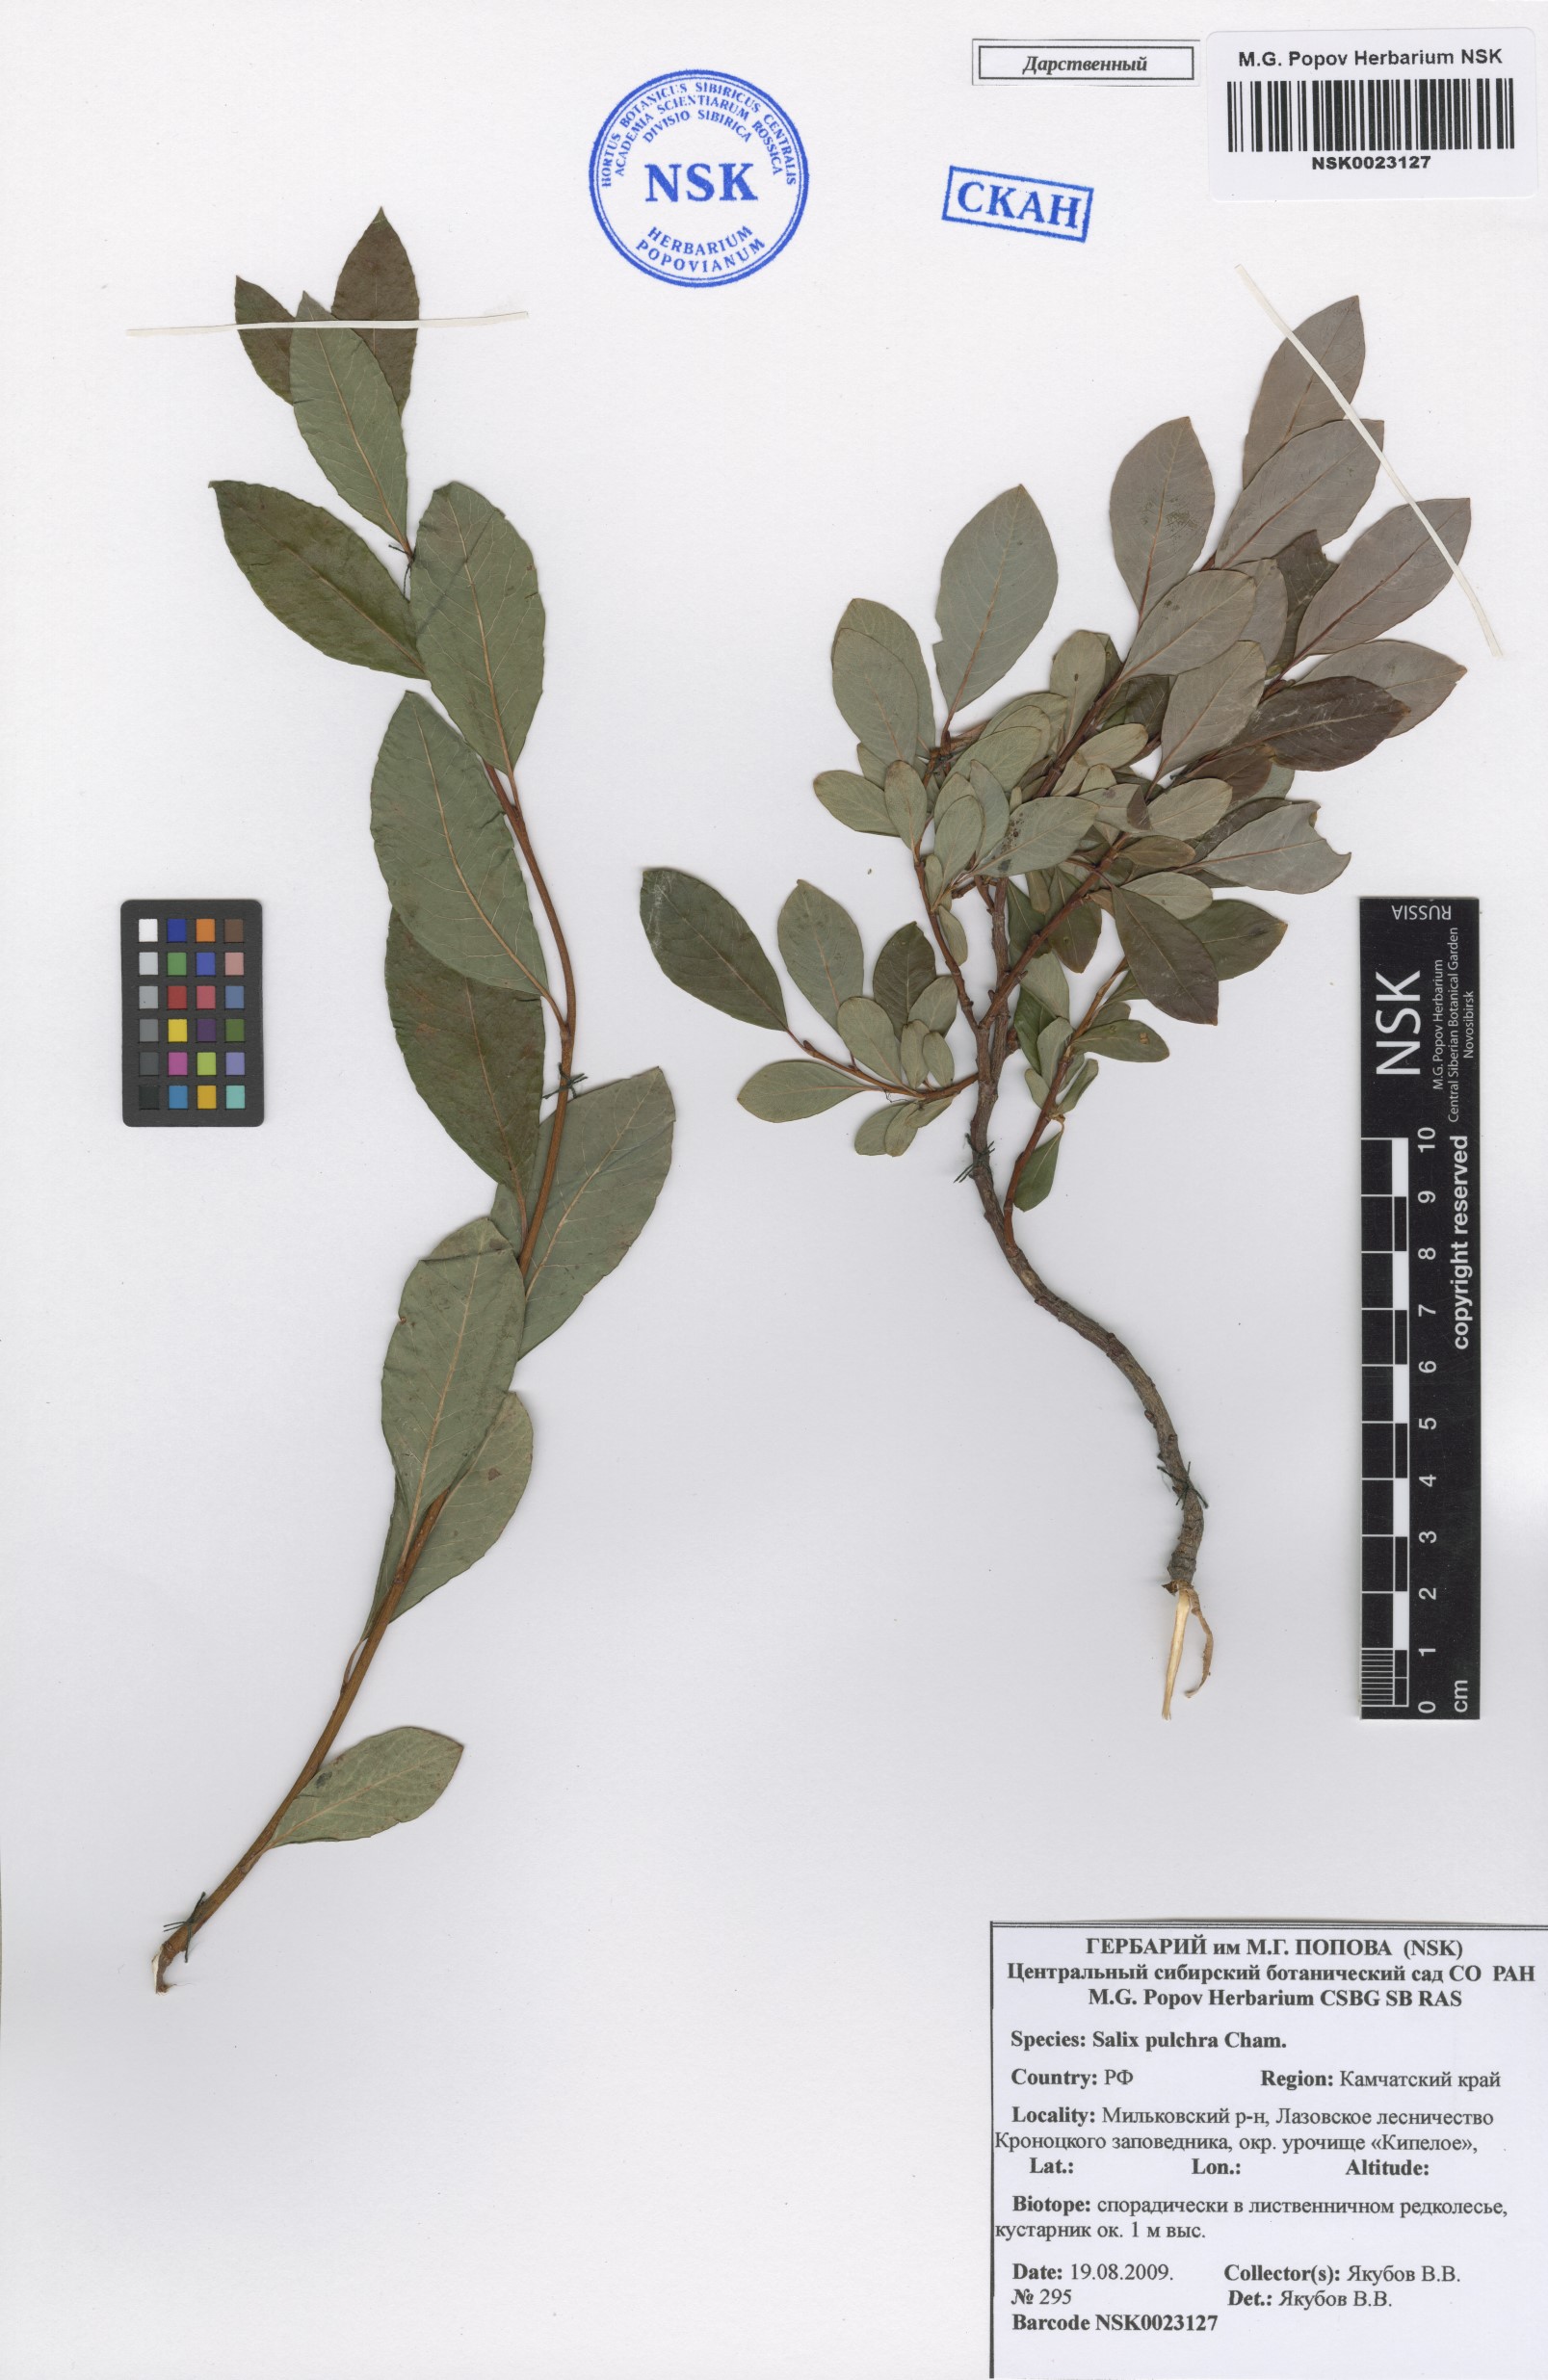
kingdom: Plantae
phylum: Tracheophyta
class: Magnoliopsida
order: Malpighiales
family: Salicaceae
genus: Salix
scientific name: Salix pulchra
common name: Diamond-leaved willow
